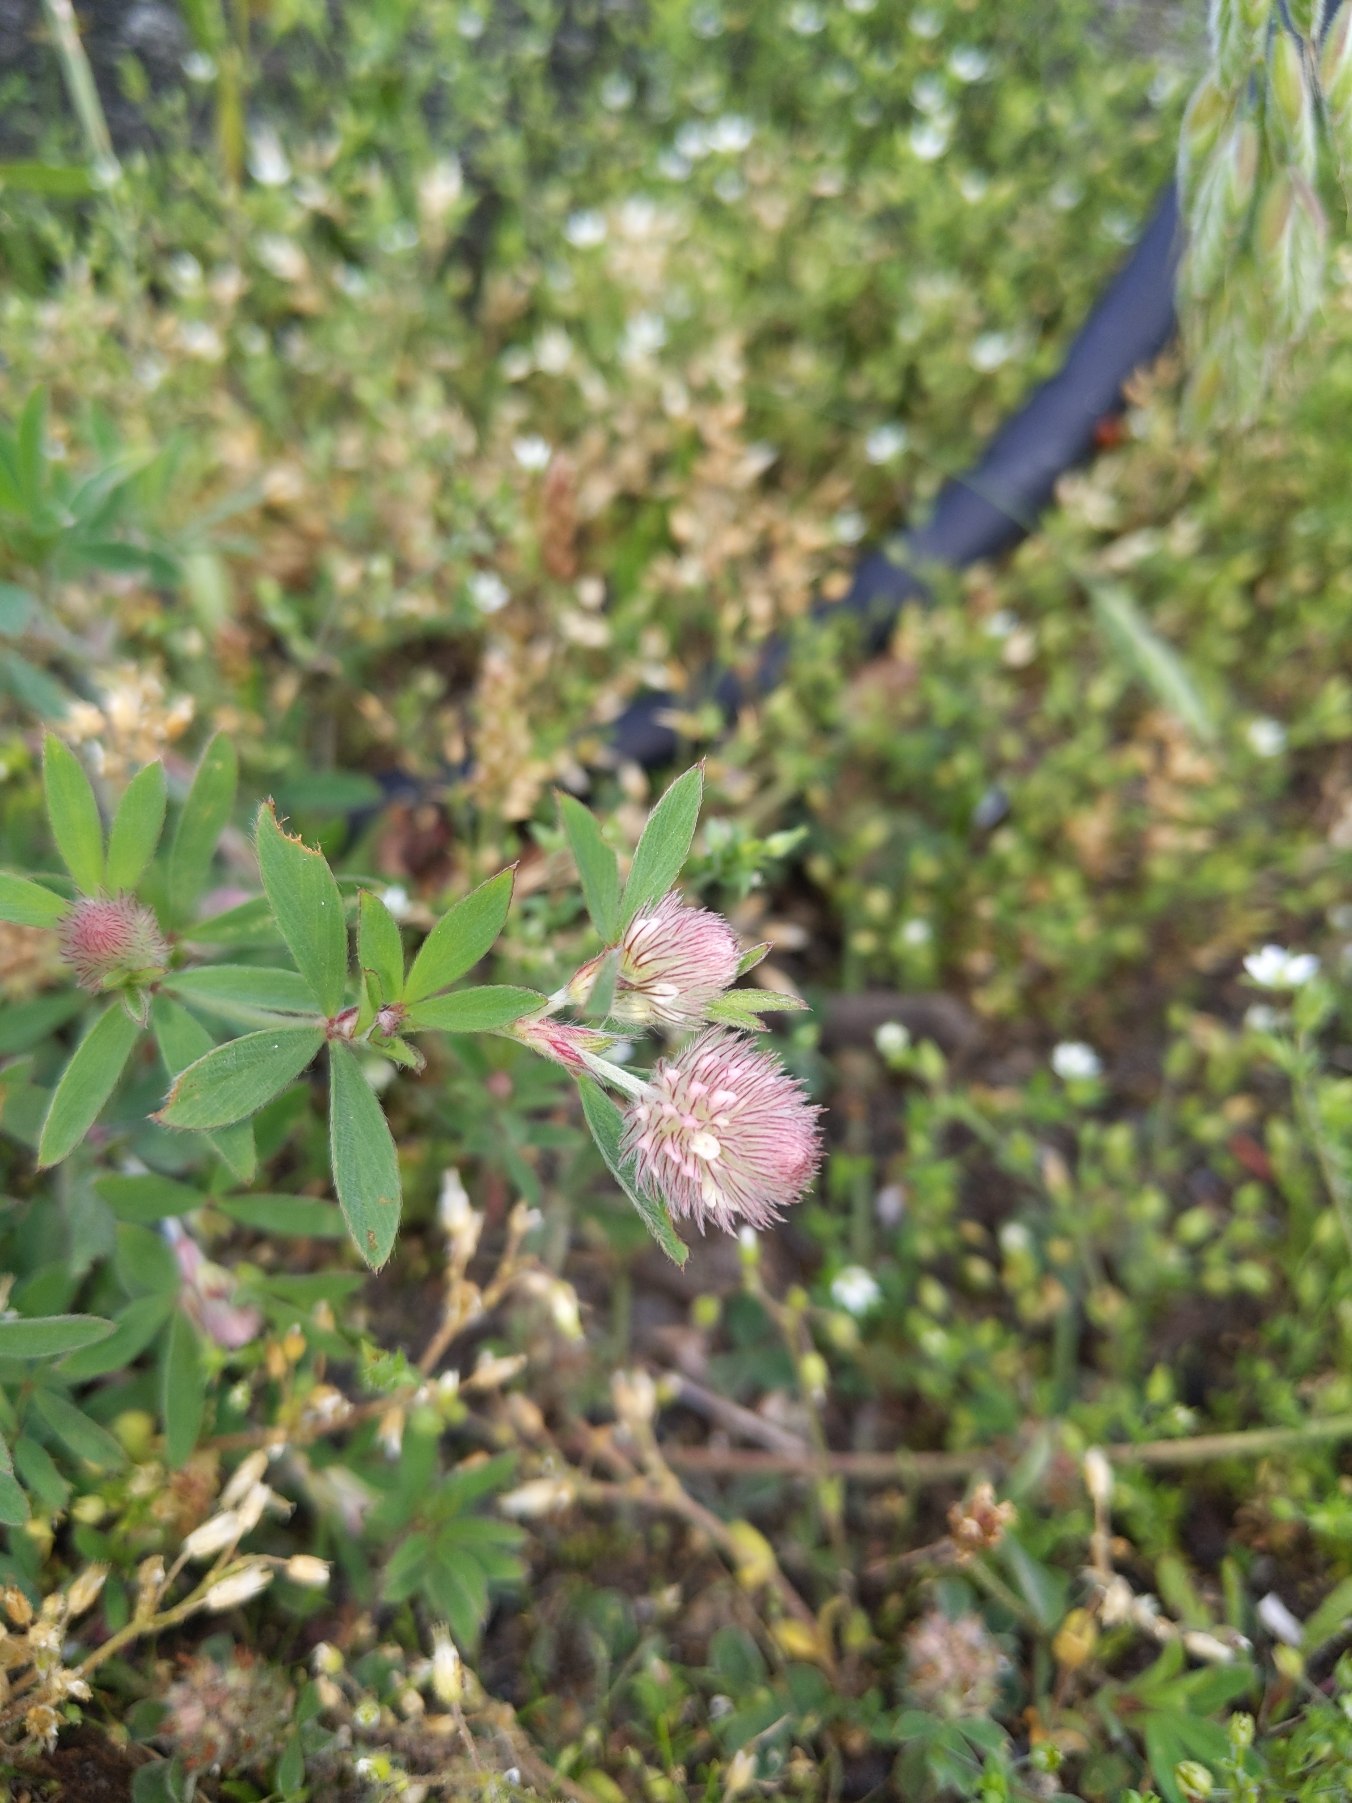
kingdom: Plantae
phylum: Tracheophyta
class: Magnoliopsida
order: Fabales
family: Fabaceae
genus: Trifolium
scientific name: Trifolium arvense
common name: Hare-kløver
